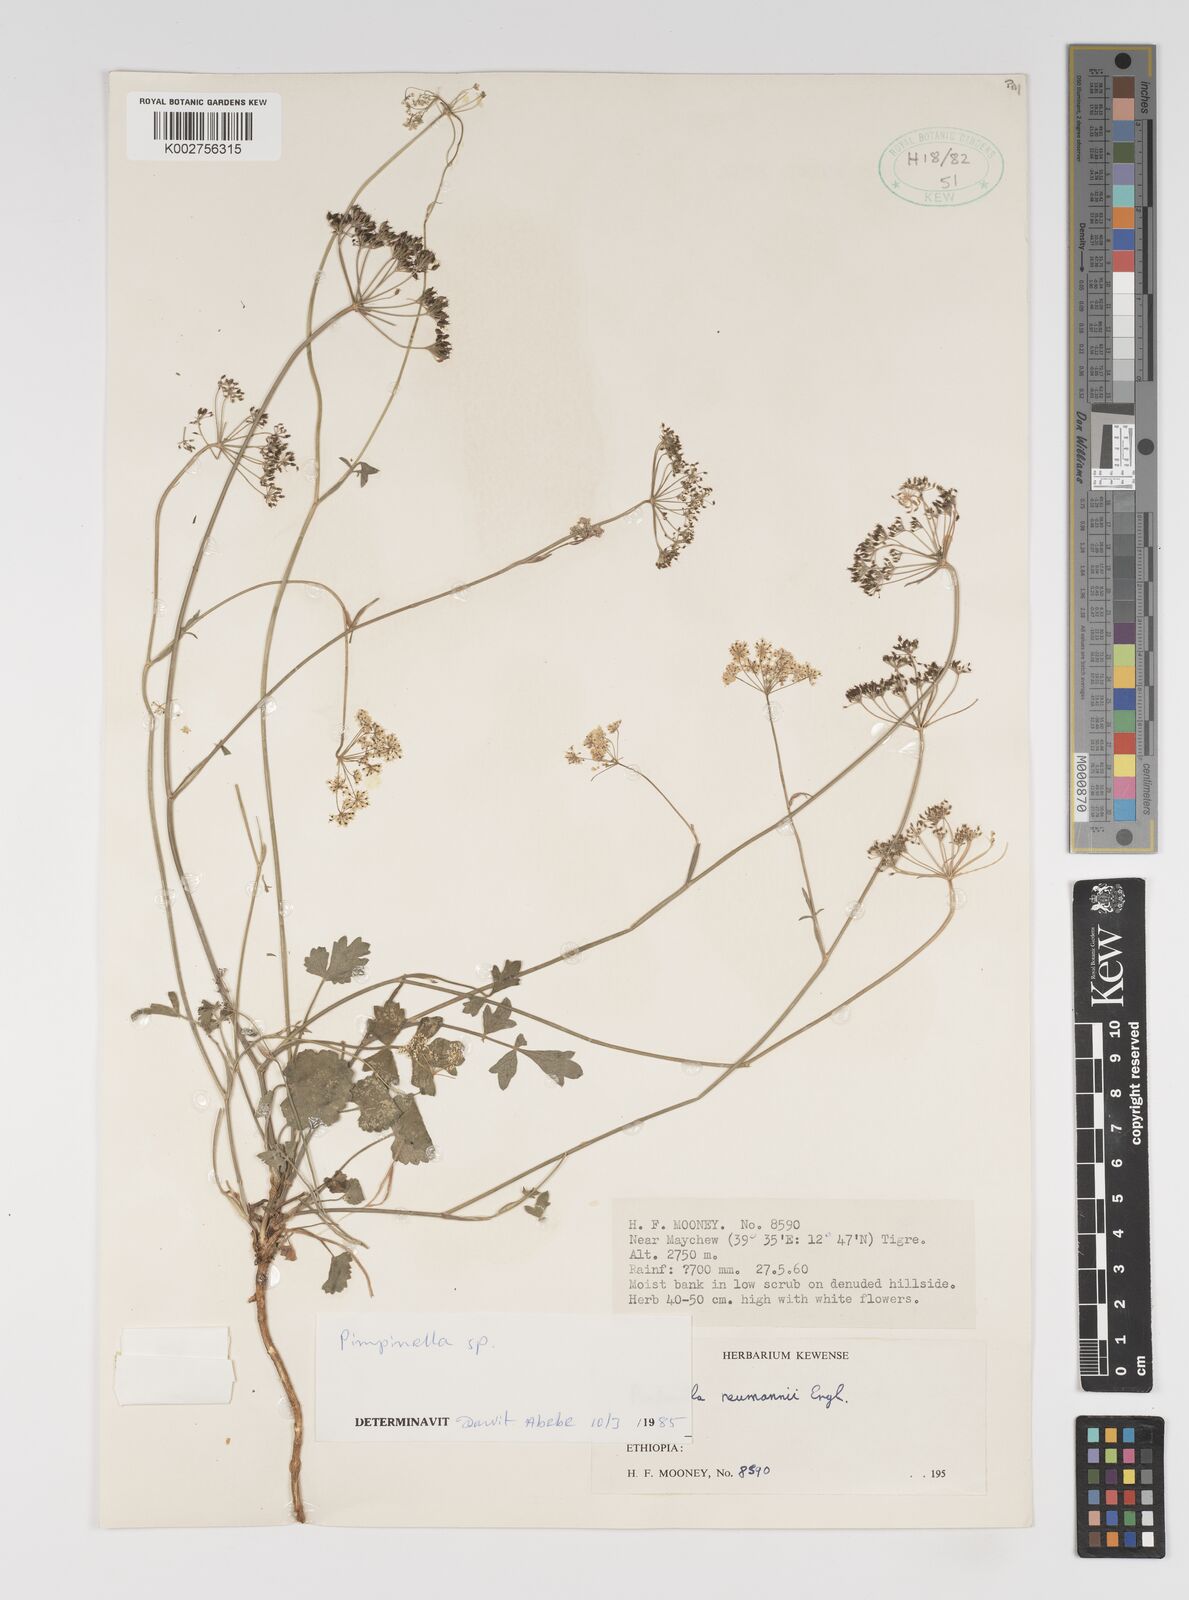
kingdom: Plantae
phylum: Tracheophyta
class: Magnoliopsida
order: Apiales
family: Apiaceae
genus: Pimpinella
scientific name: Pimpinella peregrina
